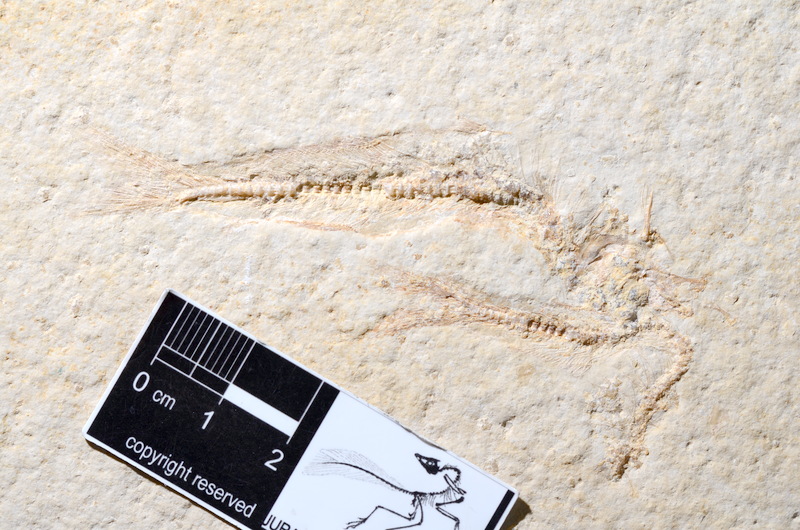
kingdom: Animalia
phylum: Chordata
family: Allothrissopidae
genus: Allothrissops
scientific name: Allothrissops mesogaster
